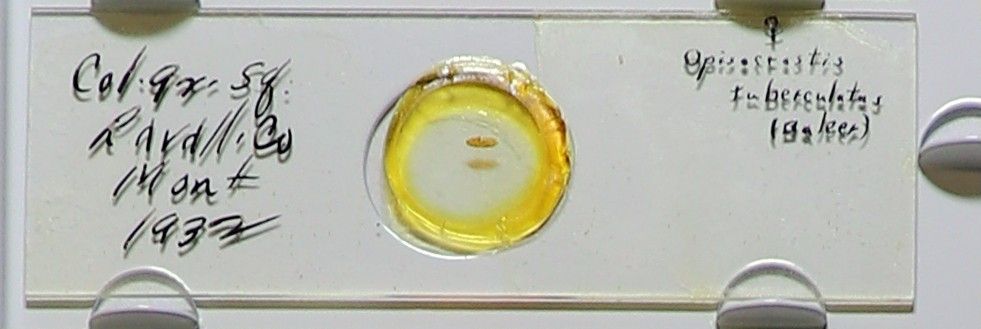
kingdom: Animalia
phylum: Arthropoda
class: Insecta
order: Siphonaptera
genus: Opisocrostis
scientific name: Opisocrostis
